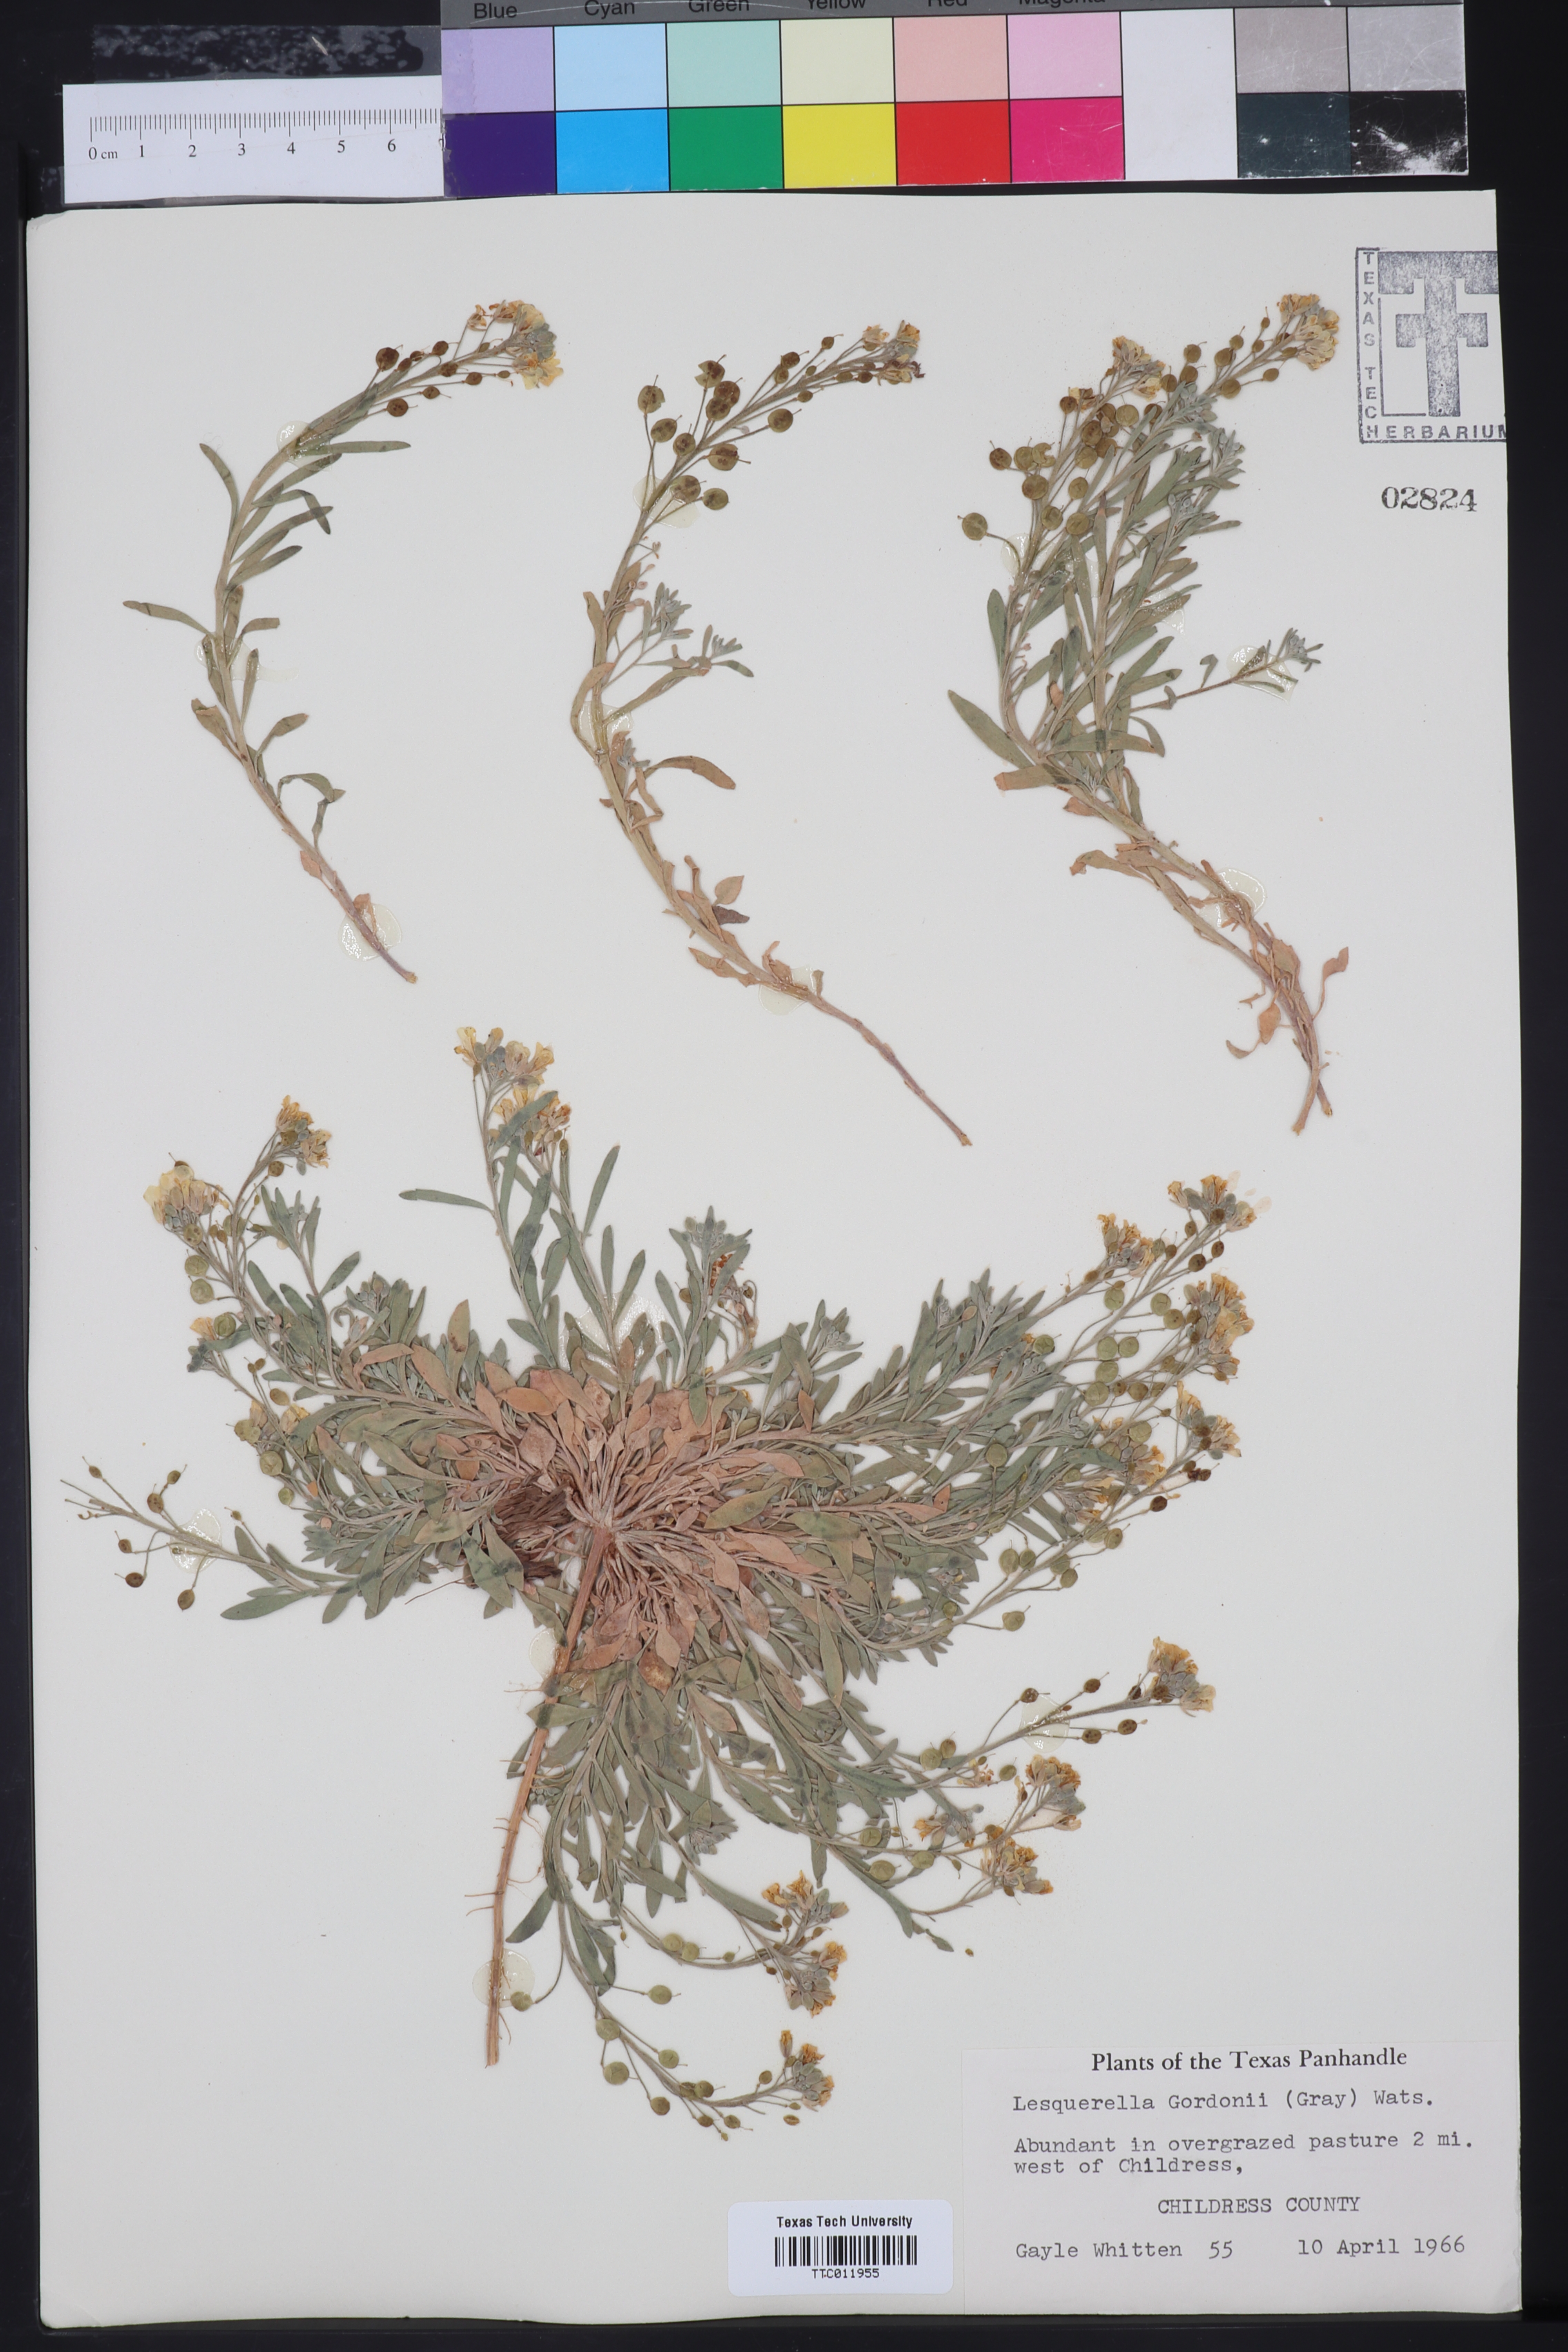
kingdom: Plantae
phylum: Tracheophyta
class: Magnoliopsida
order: Brassicales
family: Brassicaceae
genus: Physaria
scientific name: Physaria gordonii
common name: Gordon's bladderpod
